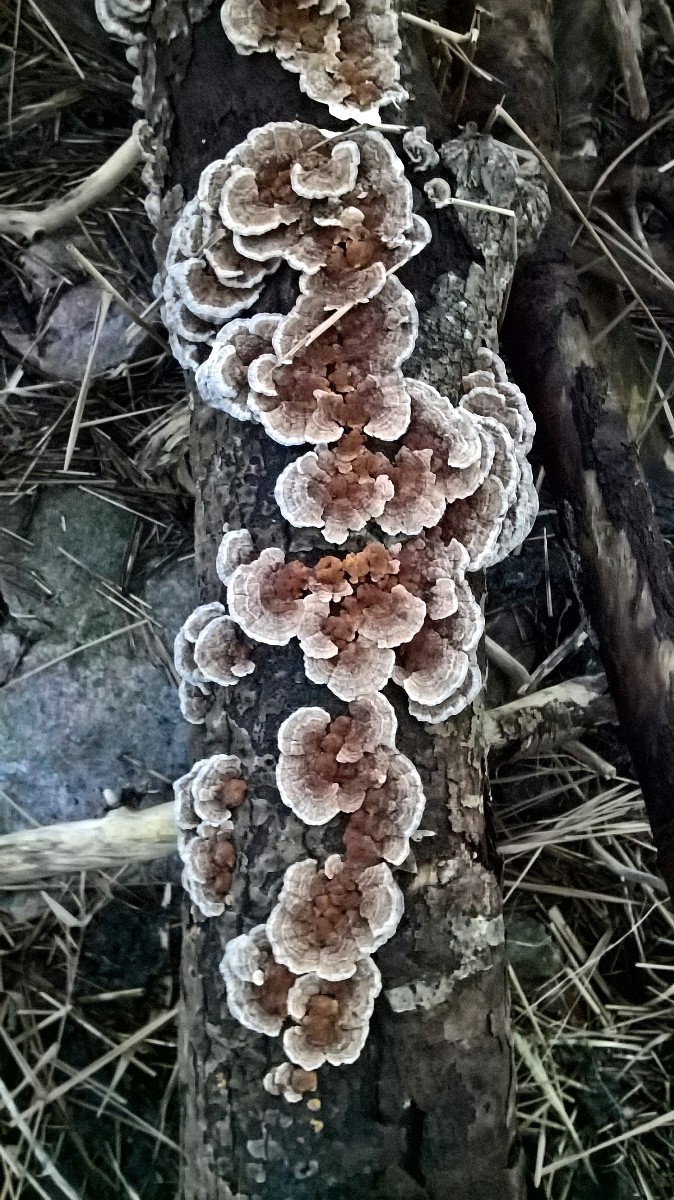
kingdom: Fungi
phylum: Basidiomycota
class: Agaricomycetes
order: Polyporales
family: Polyporaceae
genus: Trametes
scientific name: Trametes versicolor
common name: broget læderporesvamp
